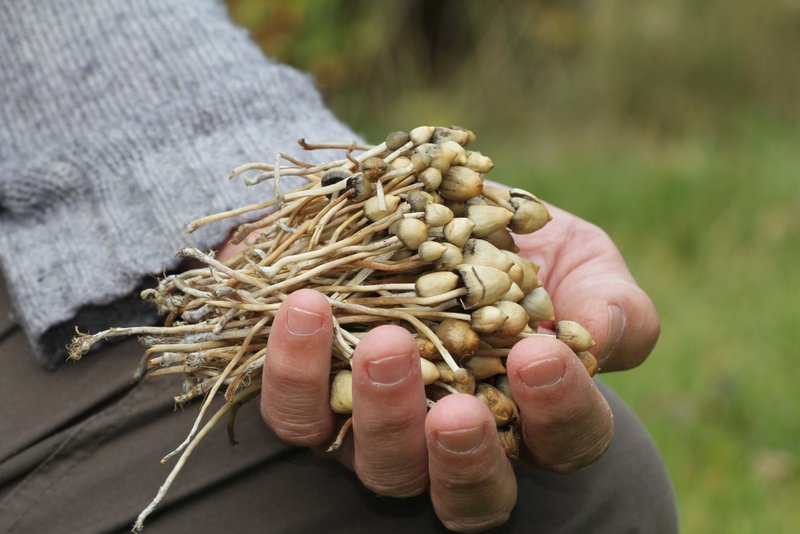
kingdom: Fungi
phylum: Basidiomycota
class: Agaricomycetes
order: Agaricales
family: Hymenogastraceae
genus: Psilocybe
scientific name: Psilocybe semilanceata
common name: spids nøgenhat
